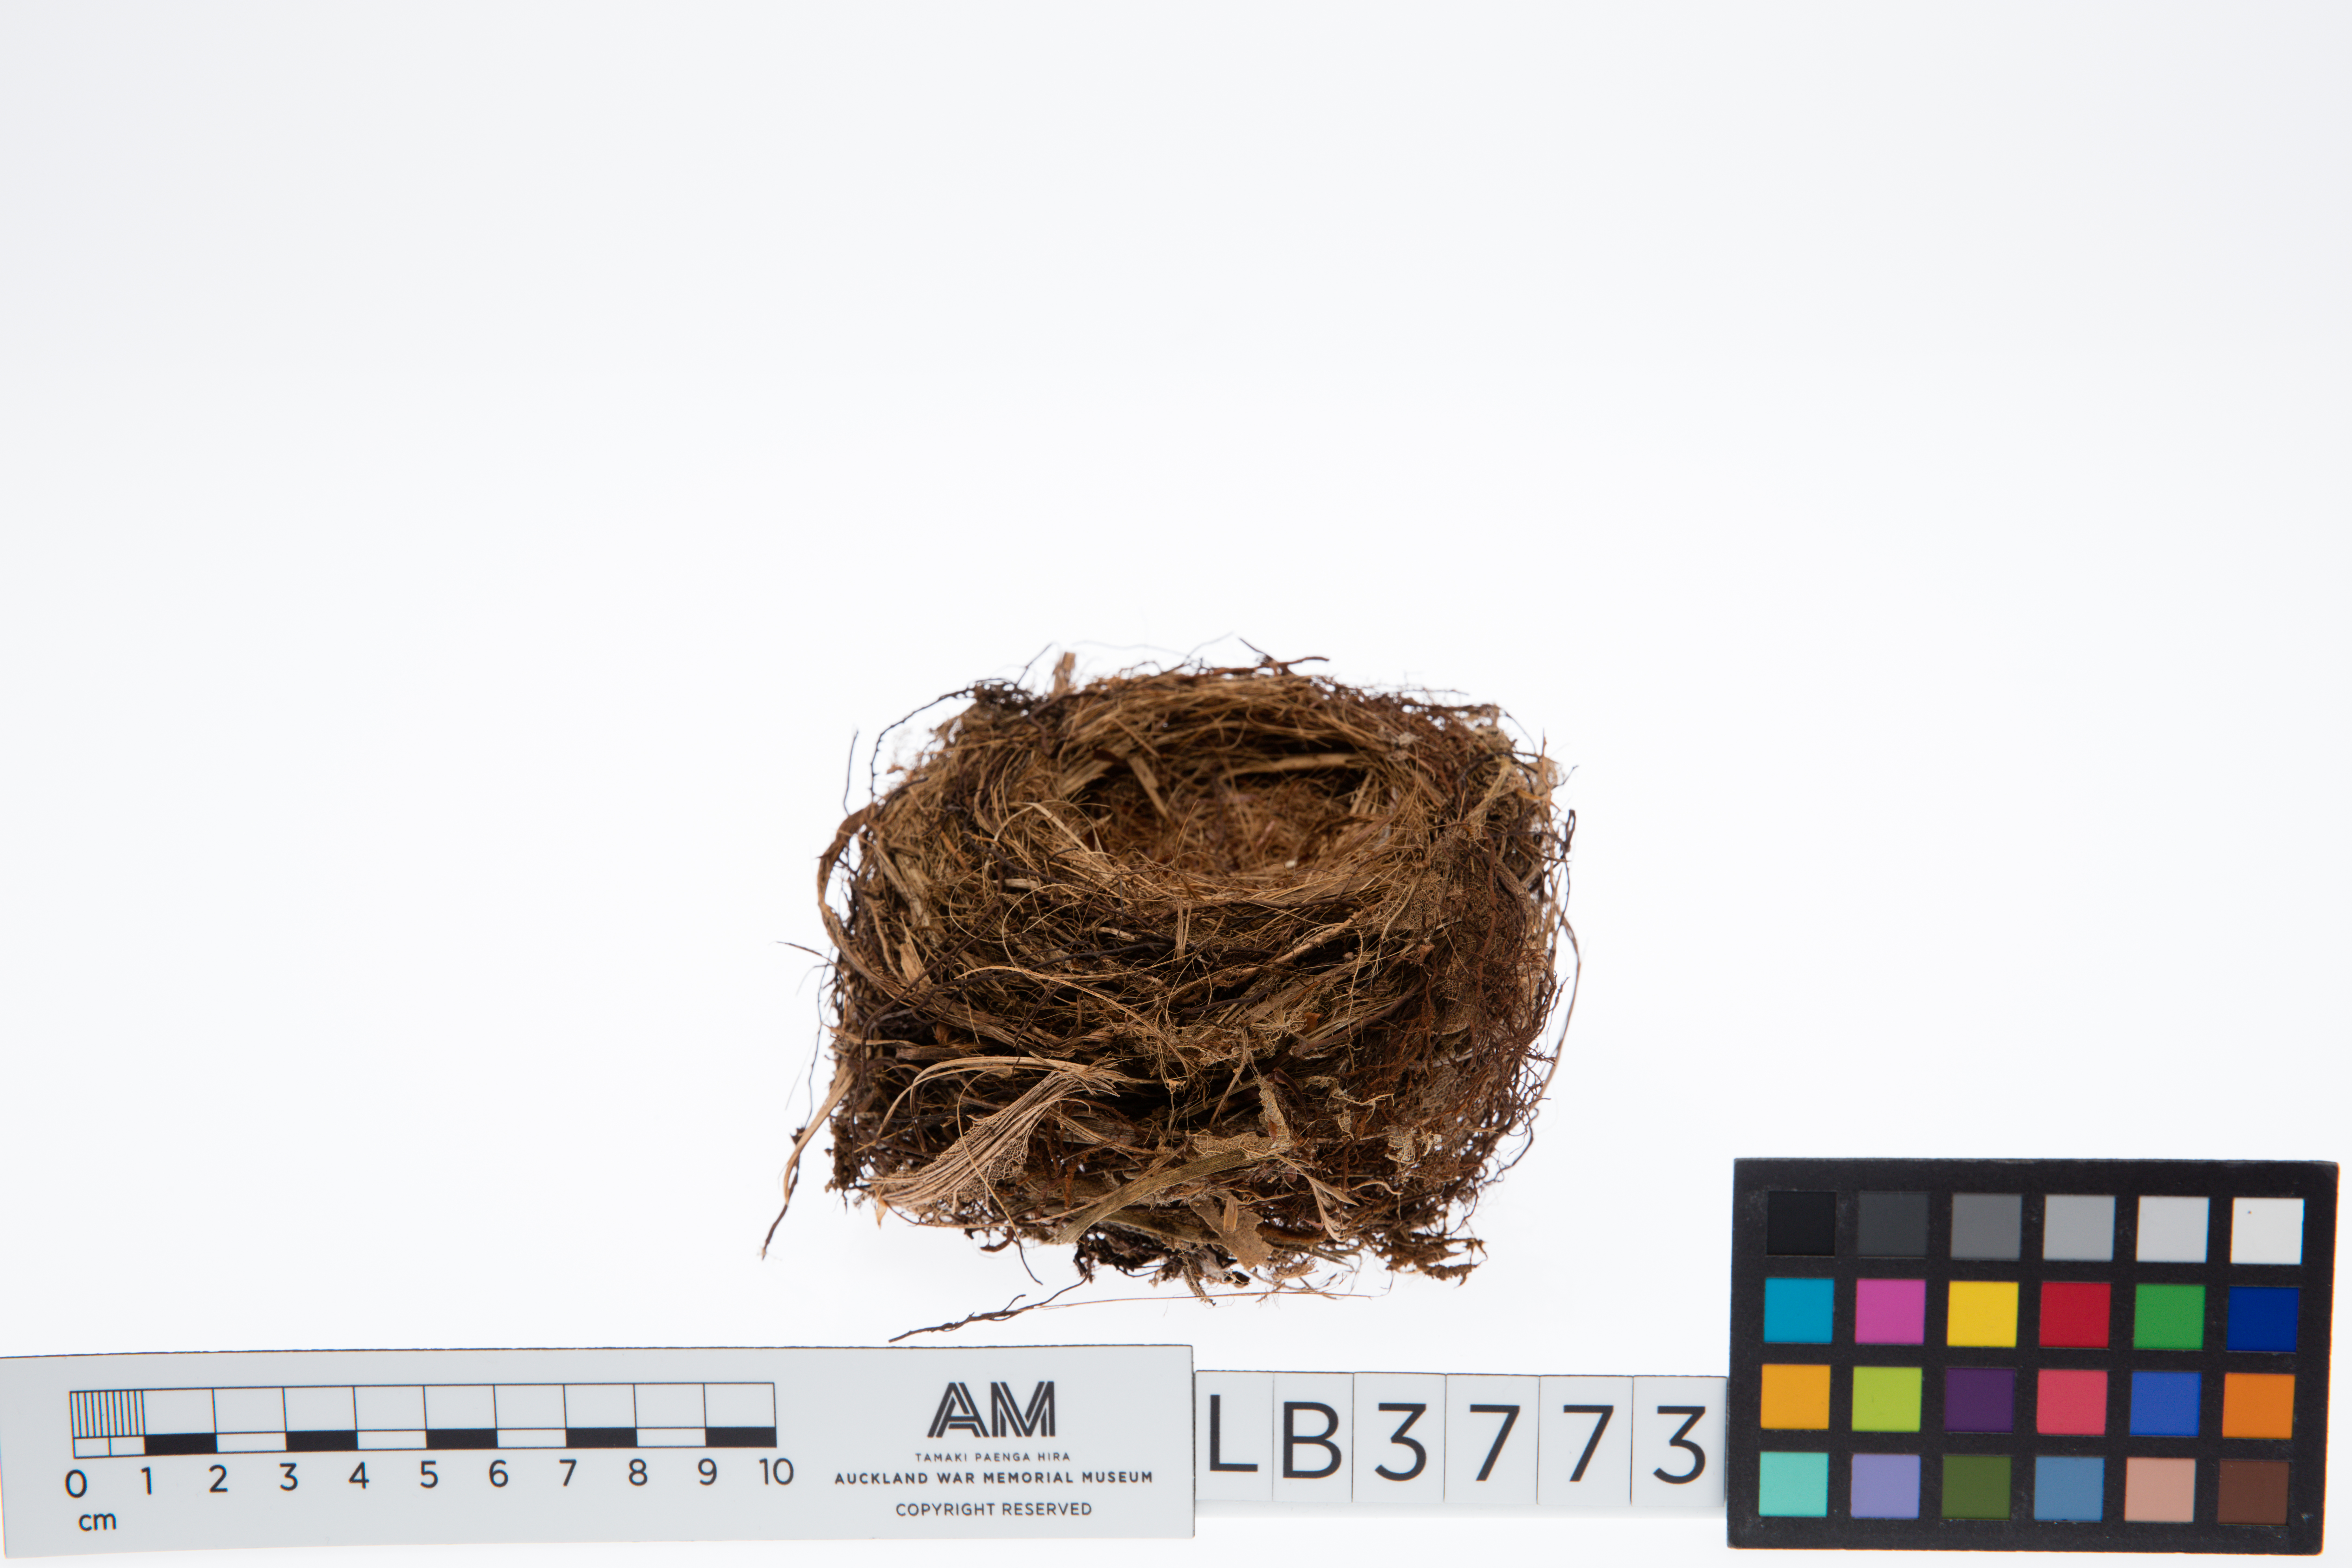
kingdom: Animalia
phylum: Chordata
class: Aves
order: Passeriformes
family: Petroicidae
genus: Petroica
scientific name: Petroica australis
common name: New zealand robin
